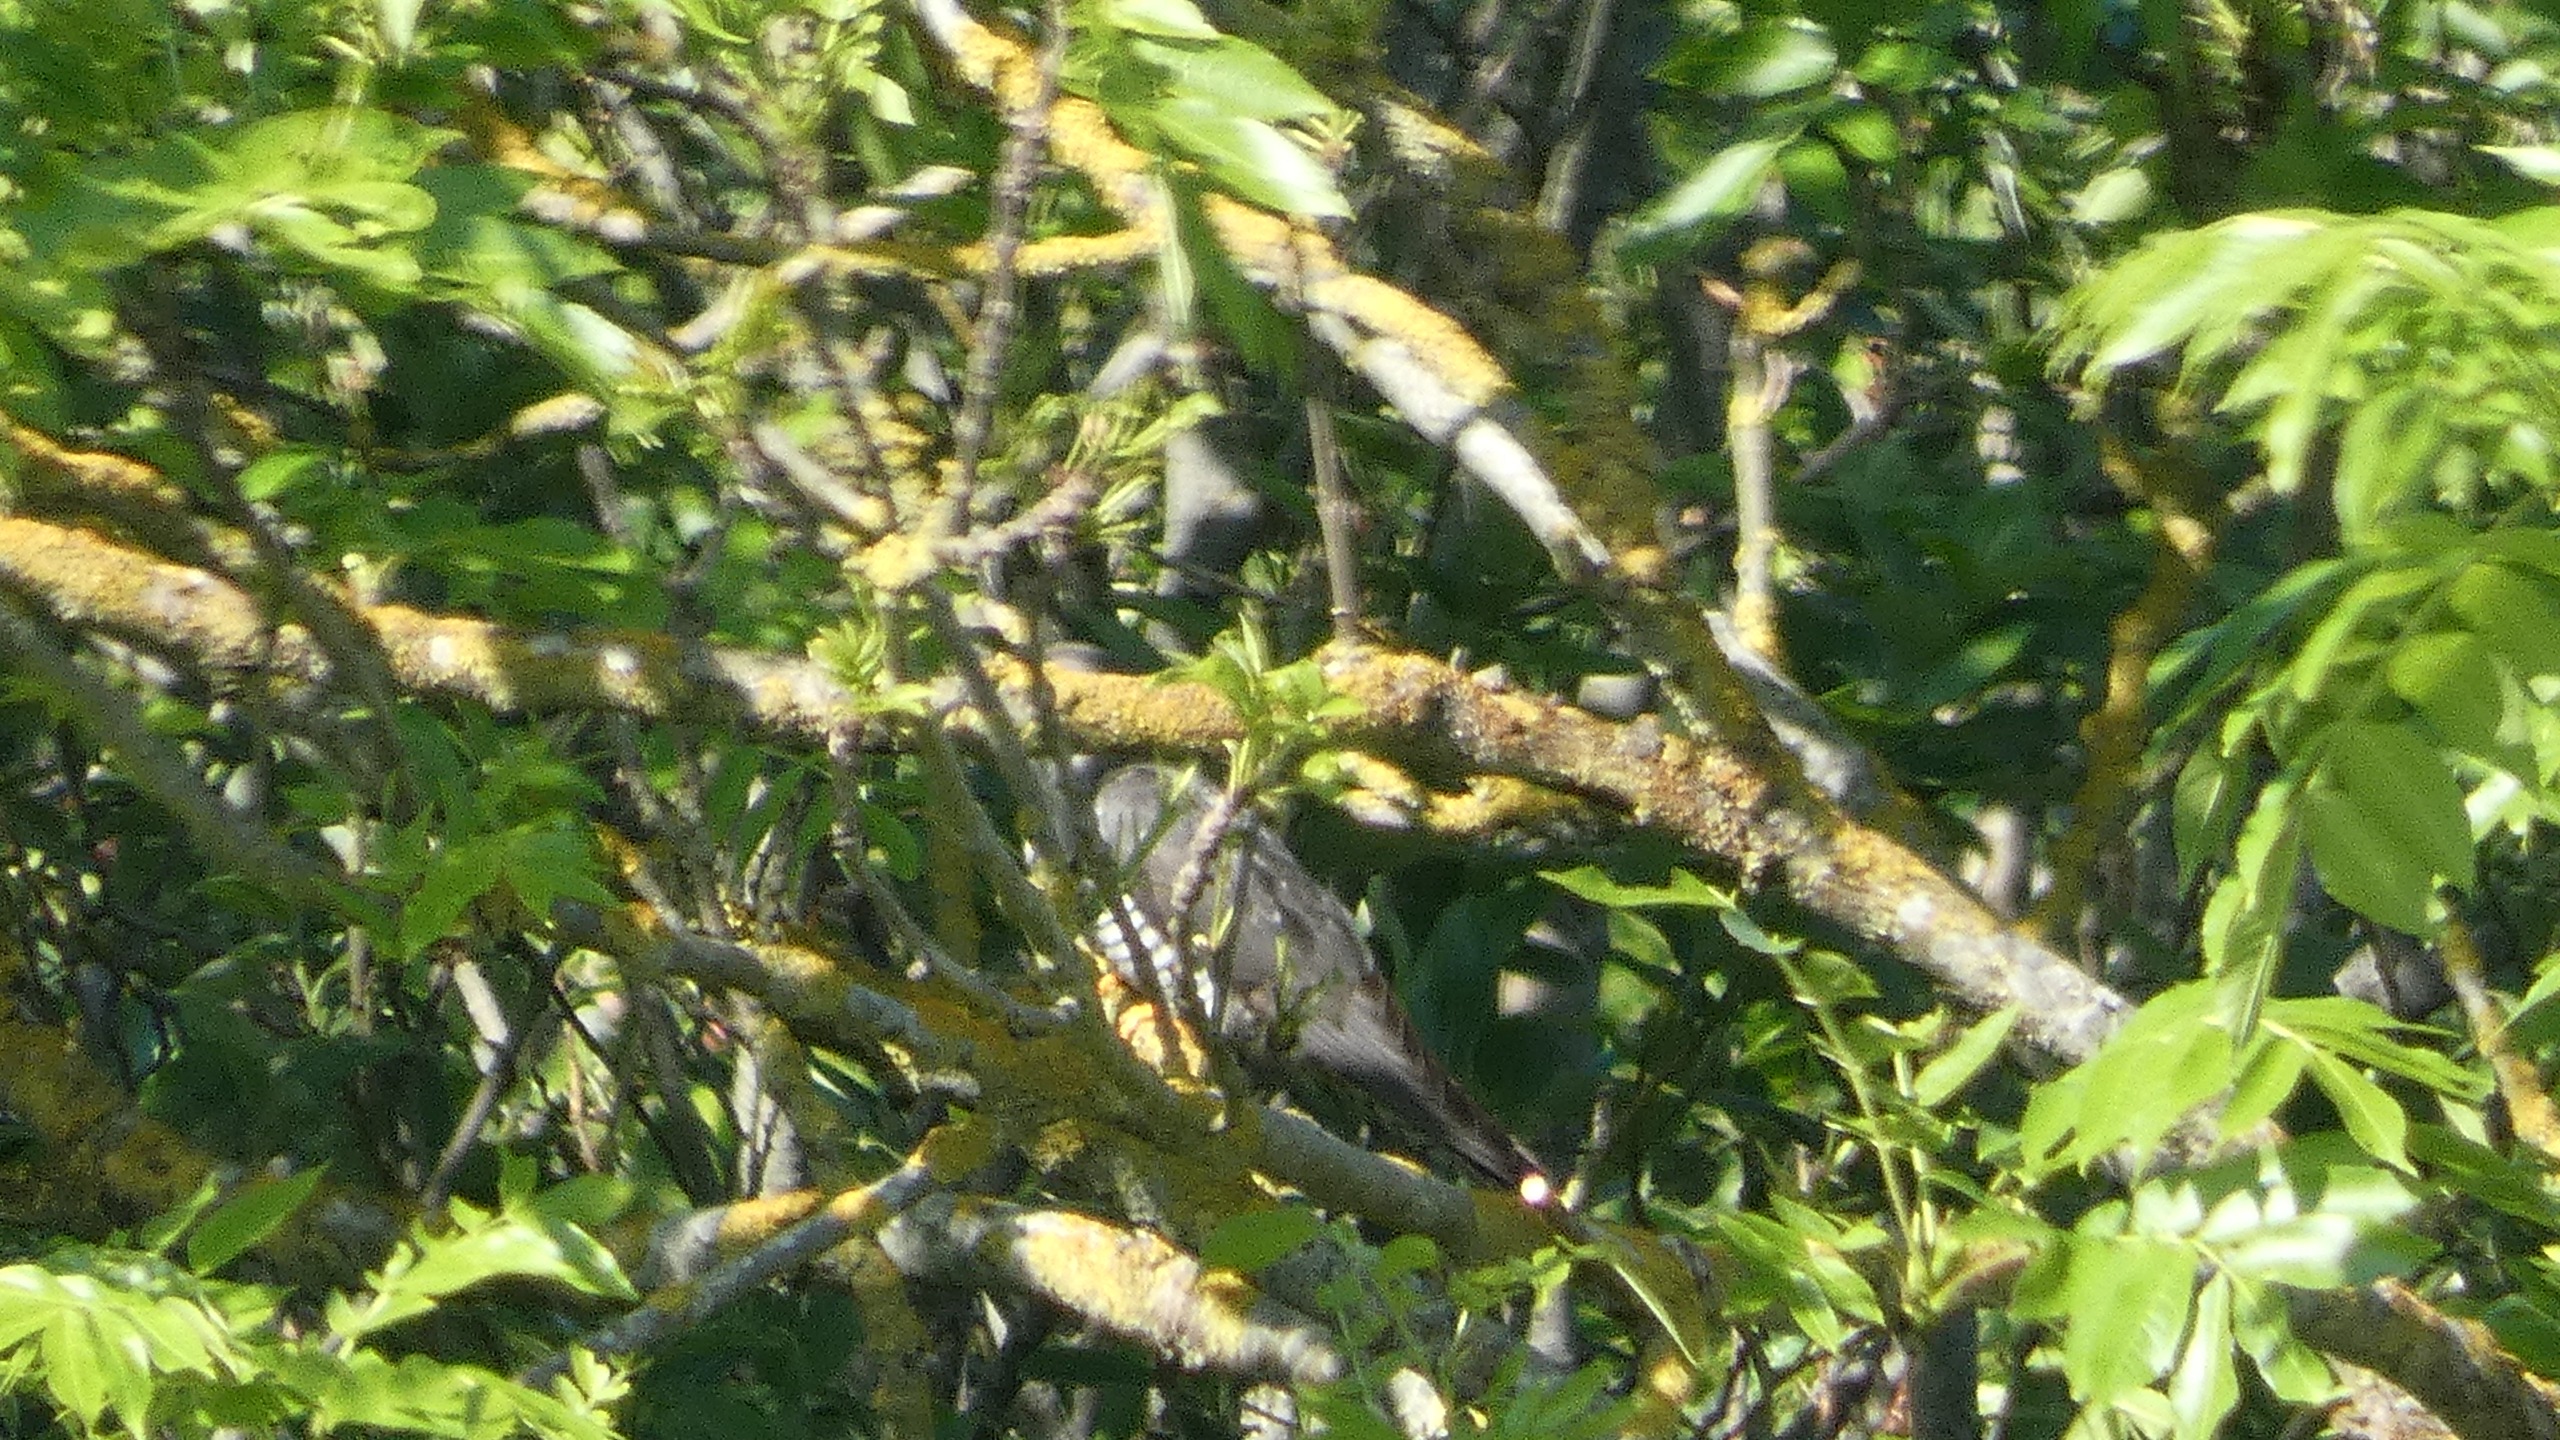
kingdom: Animalia
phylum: Chordata
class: Aves
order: Cuculiformes
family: Cuculidae
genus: Cuculus
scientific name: Cuculus canorus
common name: Gøg
